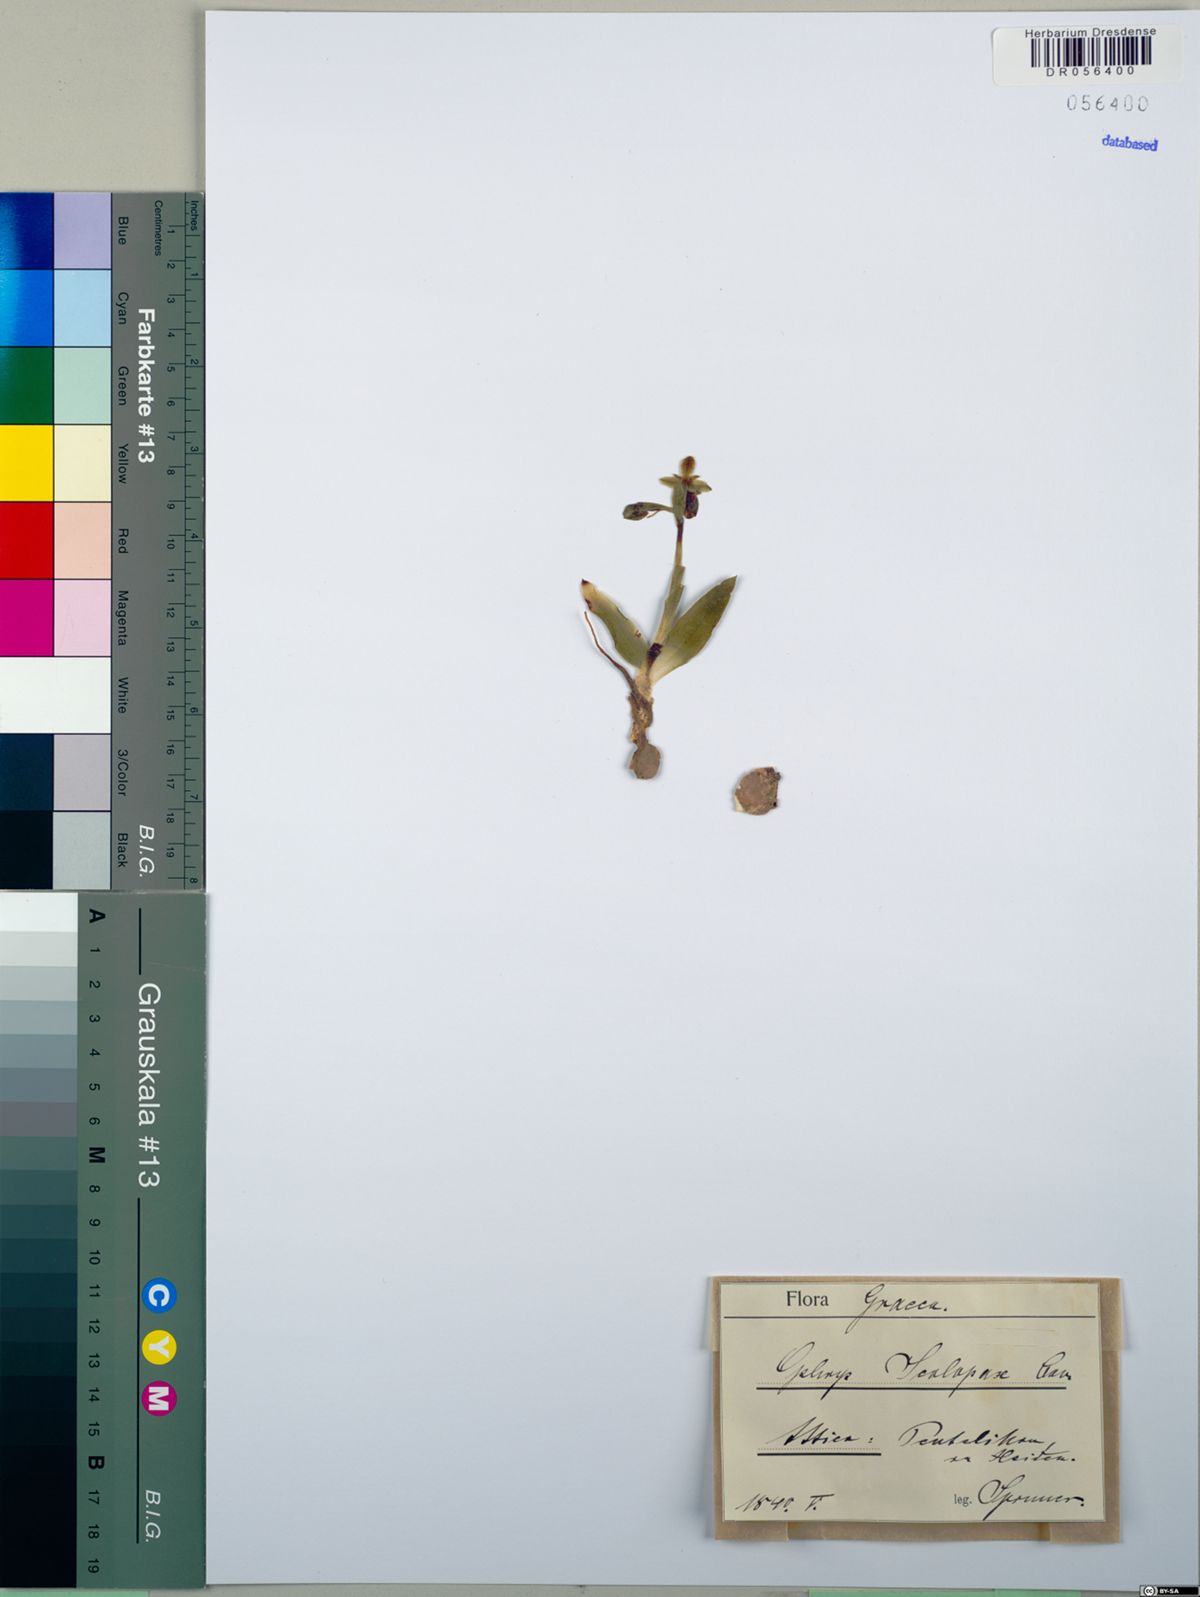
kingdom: Plantae
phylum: Tracheophyta
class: Liliopsida
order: Asparagales
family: Orchidaceae
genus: Ophrys
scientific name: Ophrys scolopax
